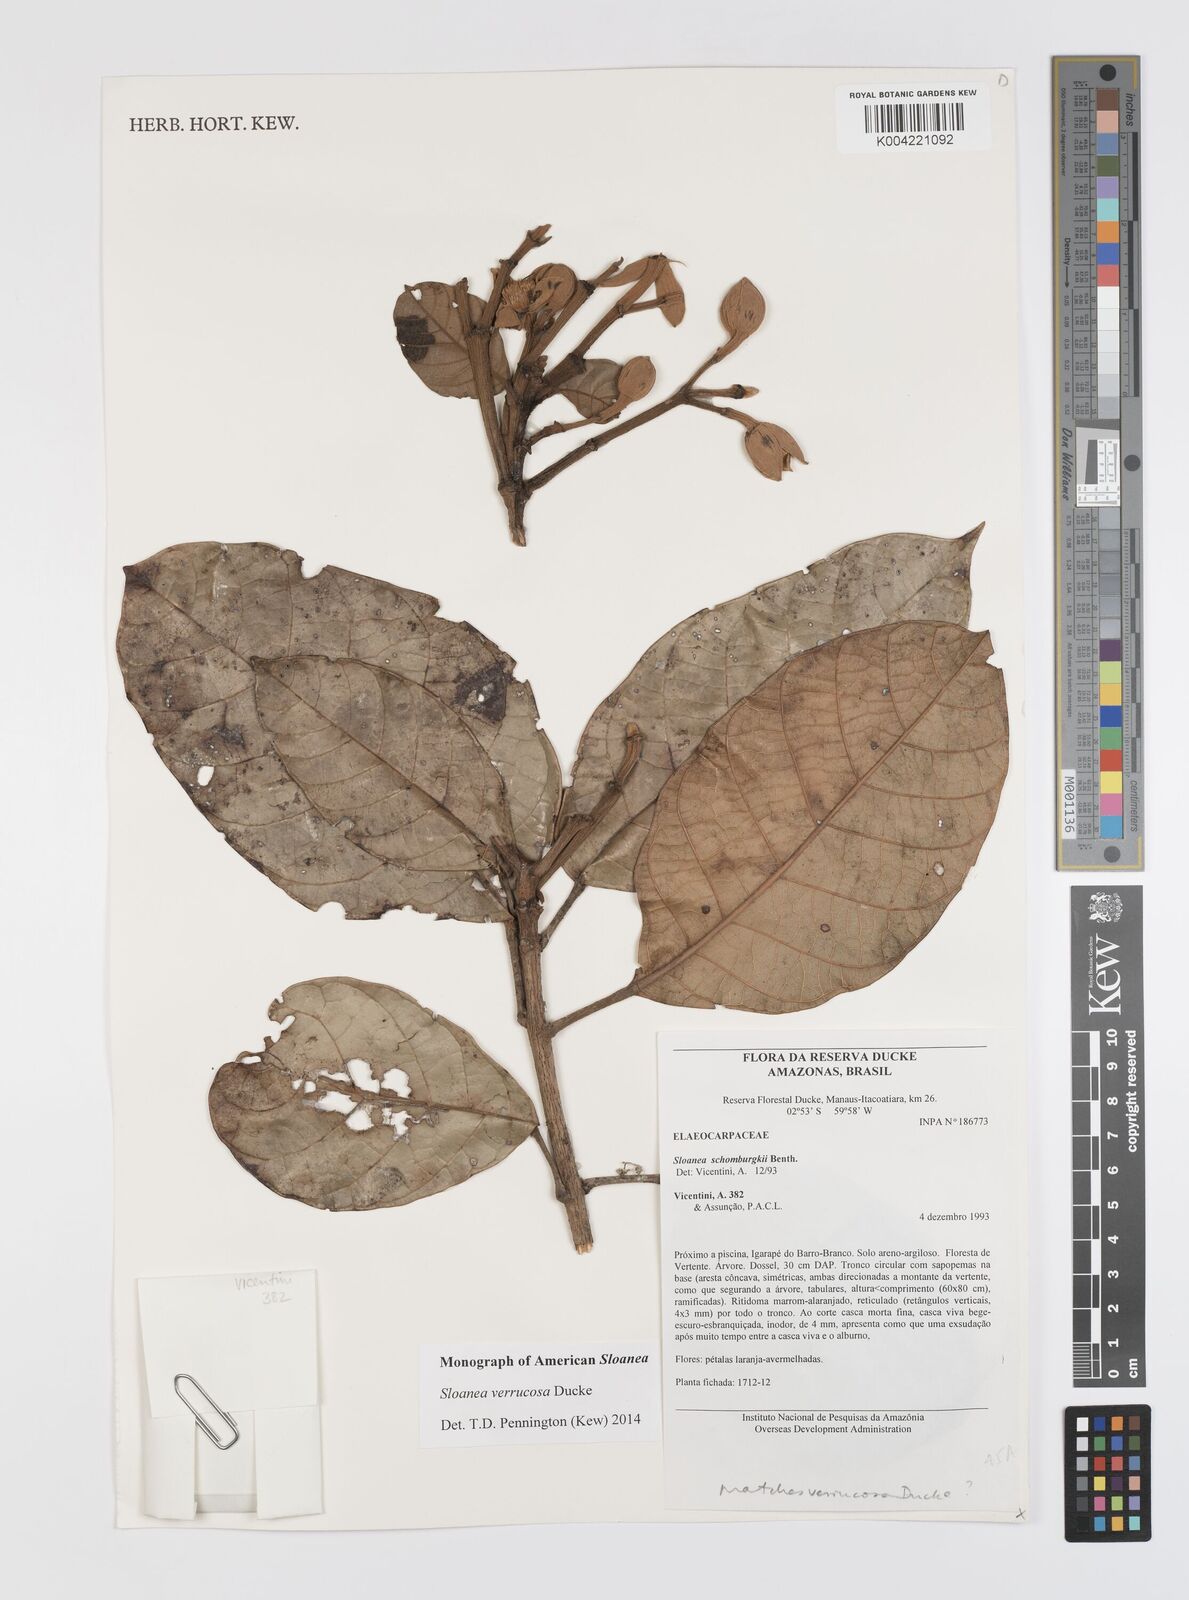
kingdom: Plantae
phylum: Tracheophyta
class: Magnoliopsida
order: Oxalidales
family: Elaeocarpaceae
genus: Sloanea
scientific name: Sloanea schomburgkii
